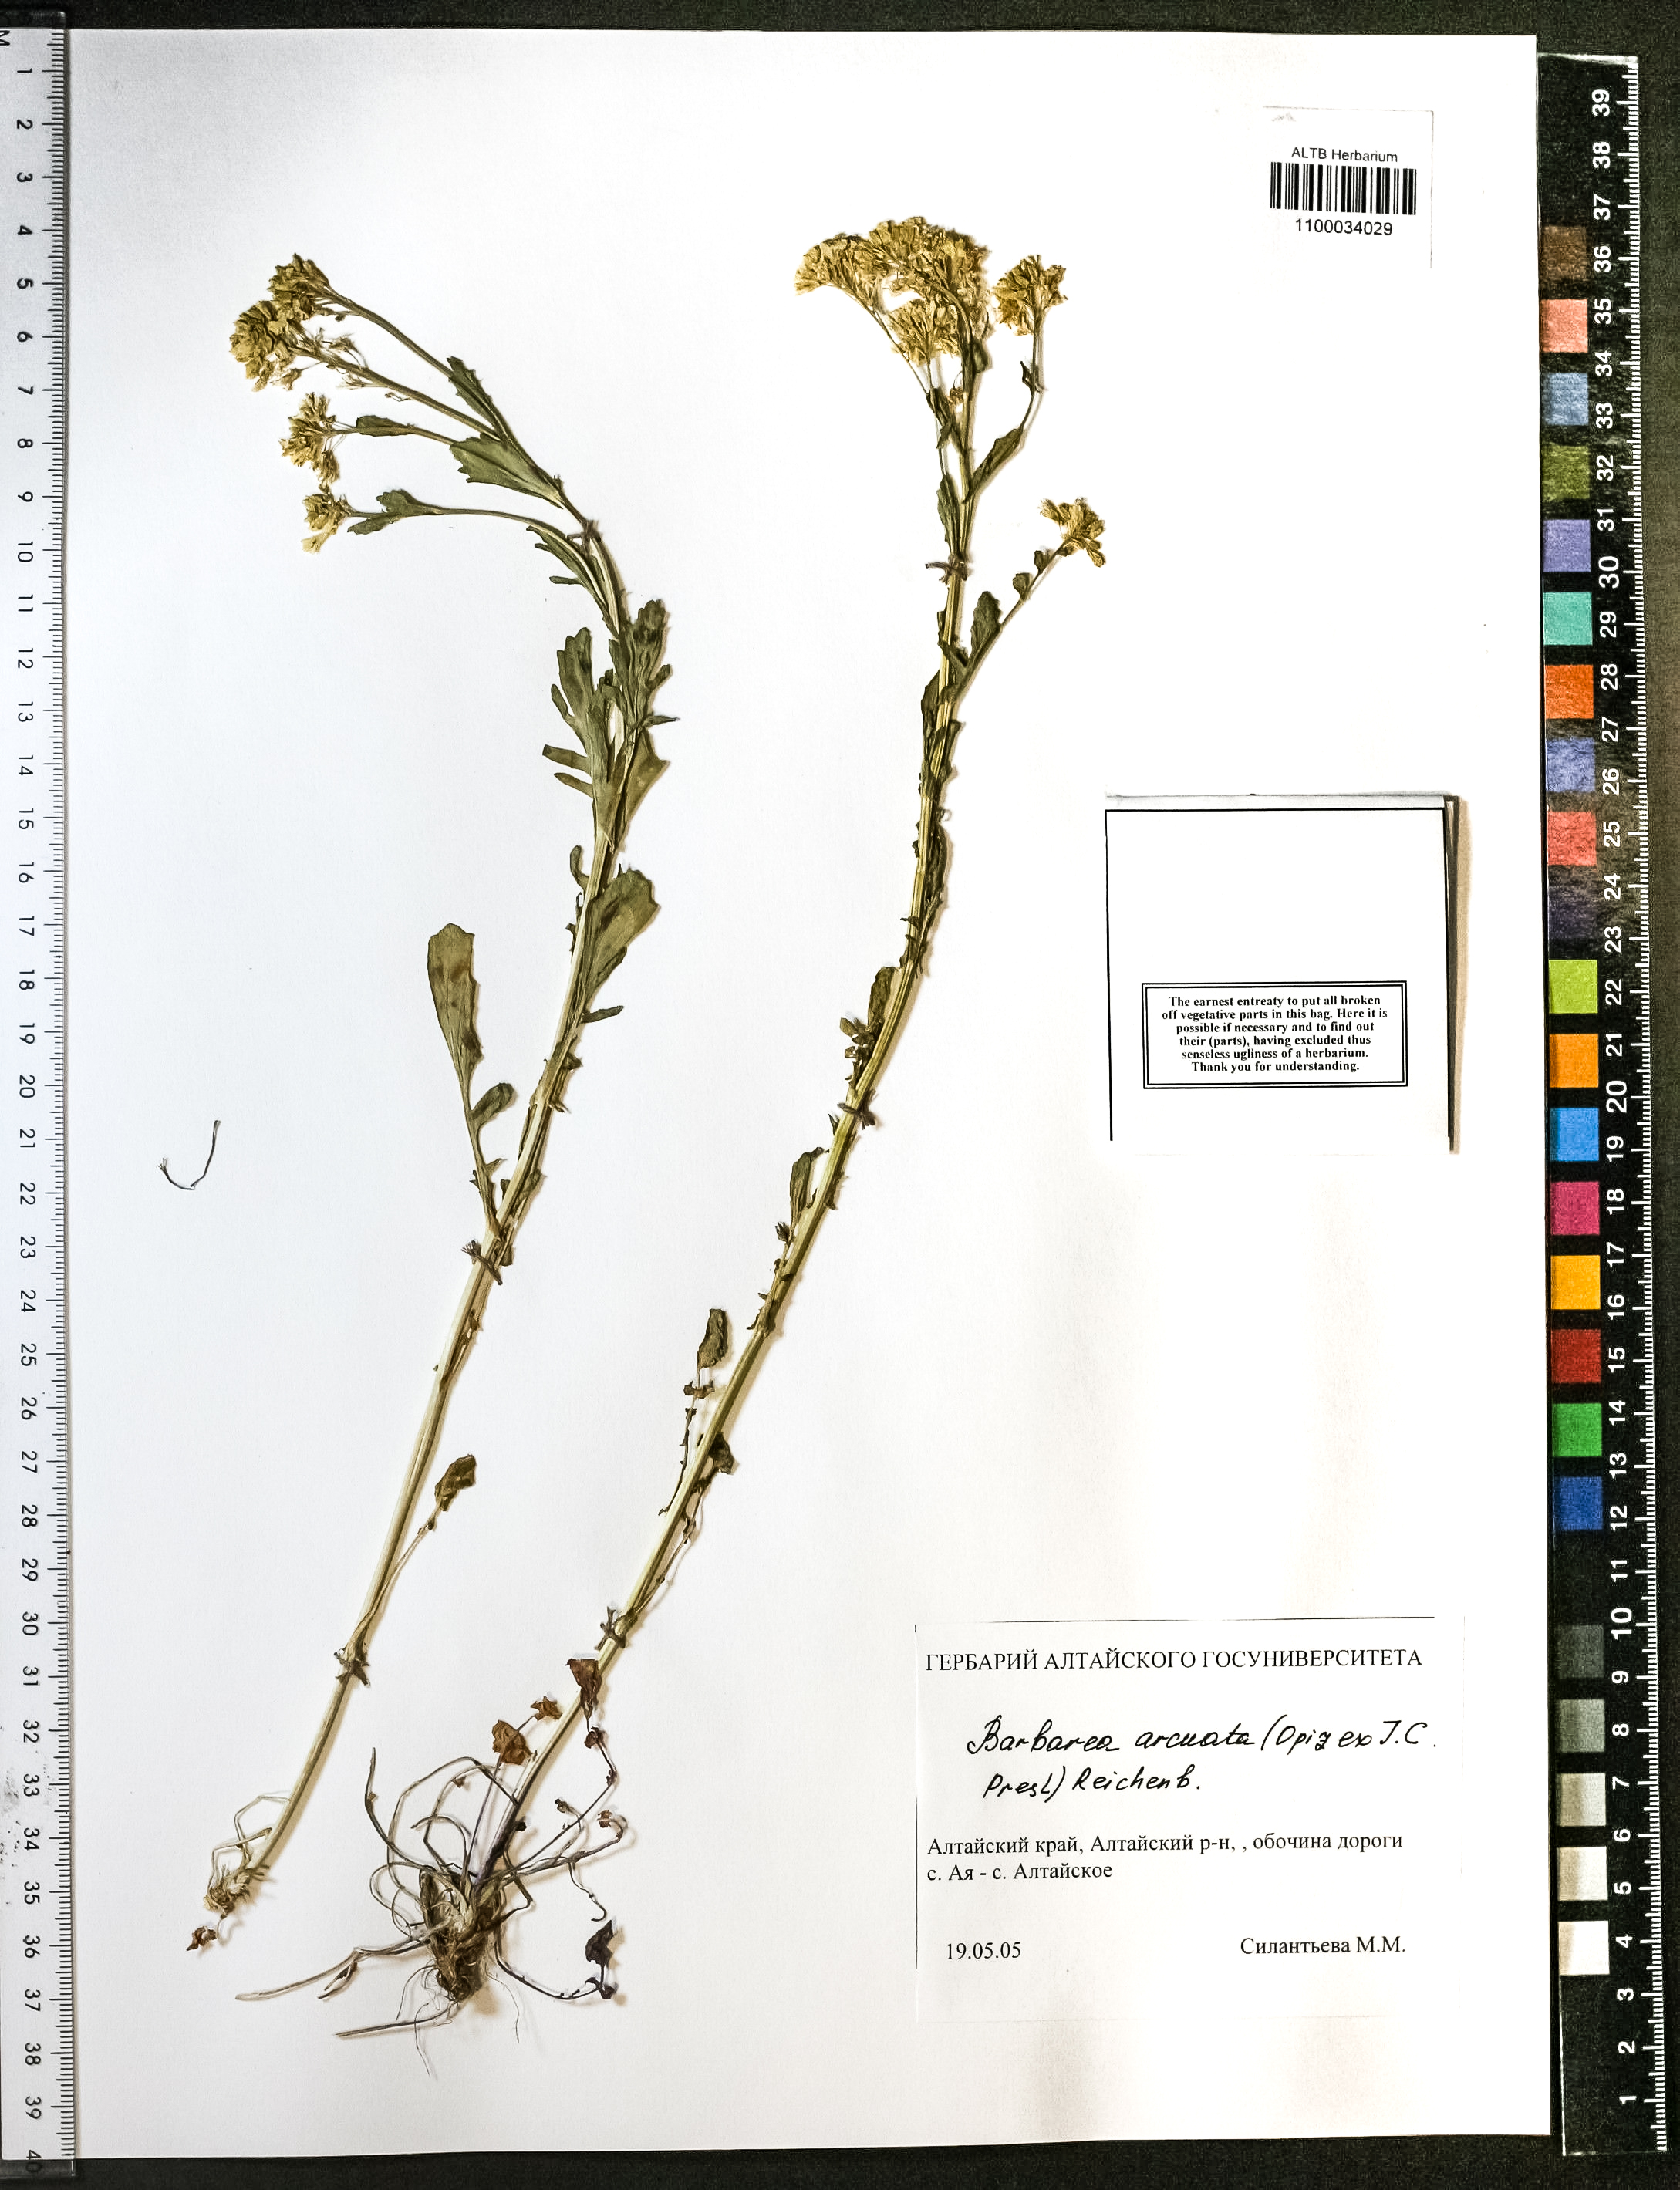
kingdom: Plantae
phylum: Tracheophyta
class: Magnoliopsida
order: Brassicales
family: Brassicaceae
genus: Barbarea
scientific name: Barbarea vulgaris
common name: Cressy-greens
